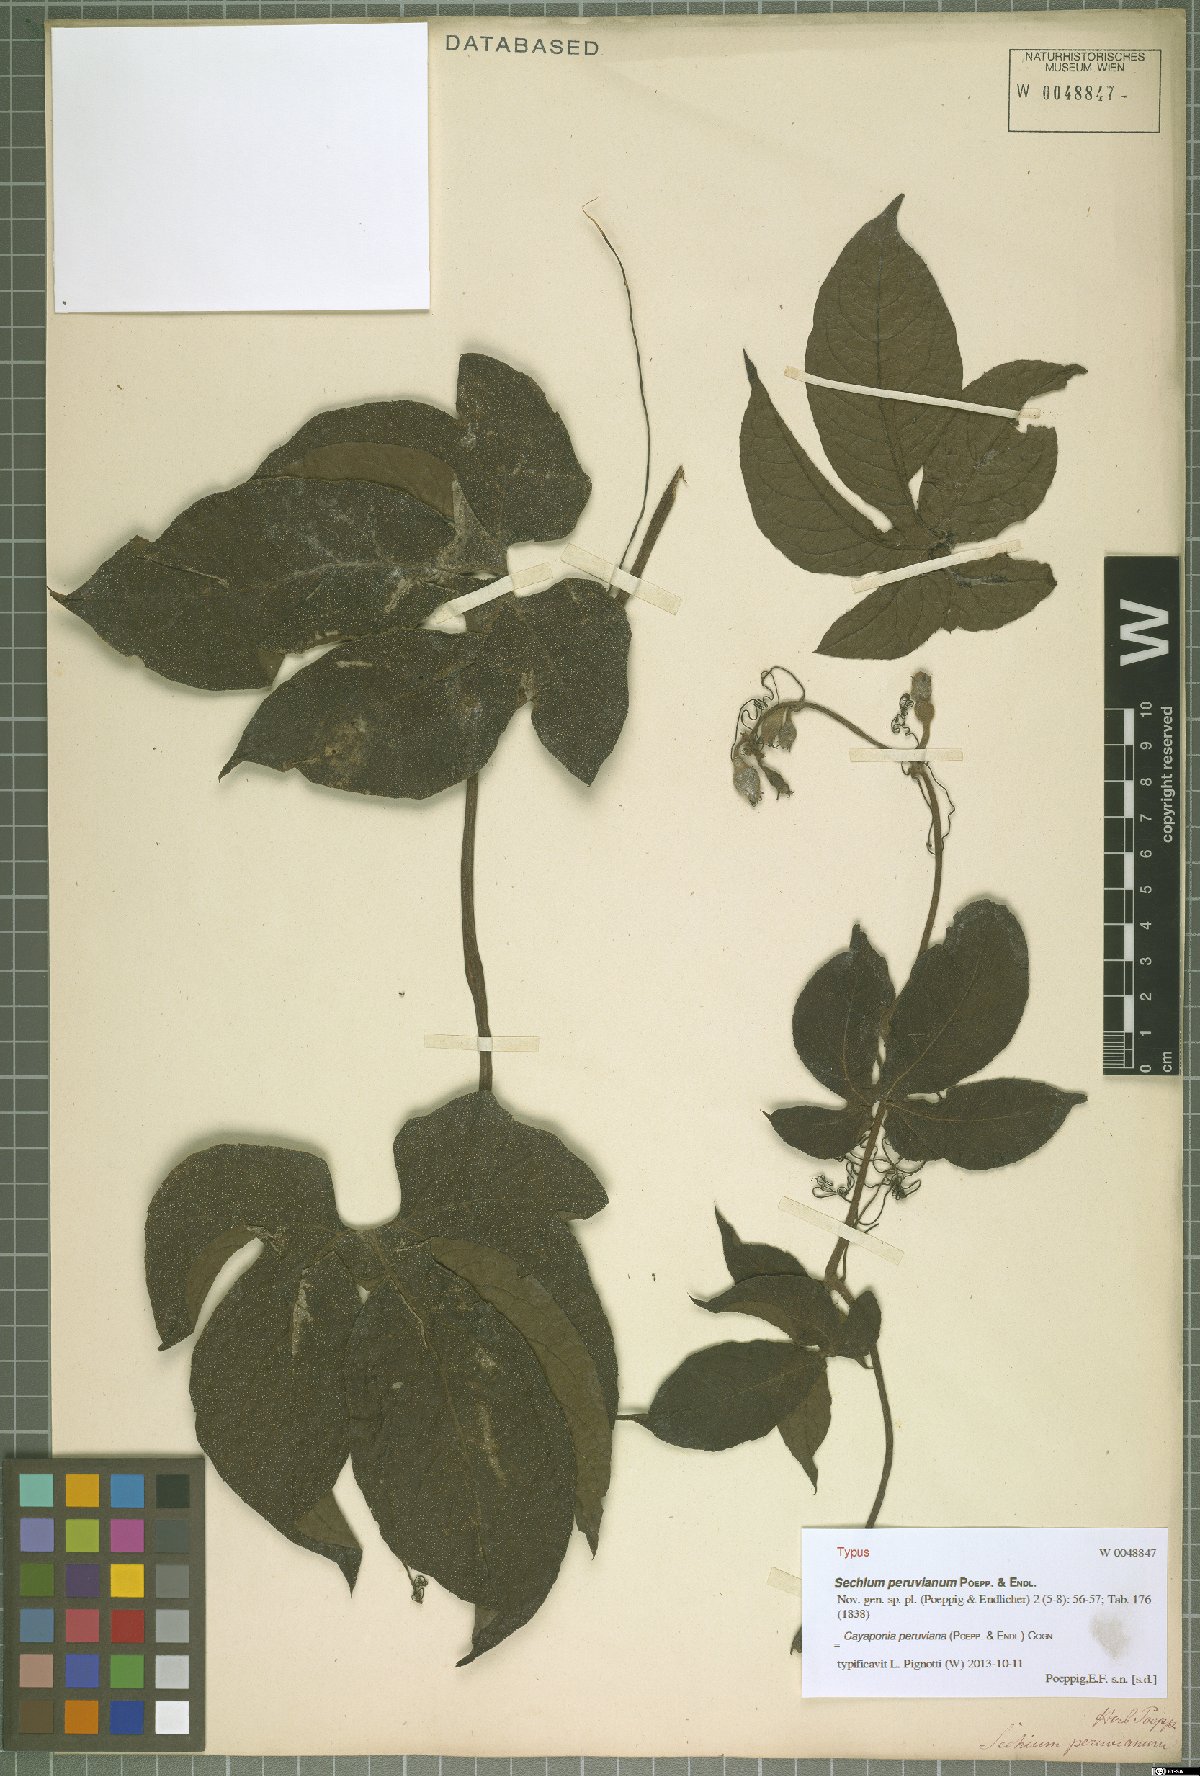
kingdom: Plantae
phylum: Tracheophyta
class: Magnoliopsida
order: Cucurbitales
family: Cucurbitaceae
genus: Cayaponia
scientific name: Cayaponia peruviana
